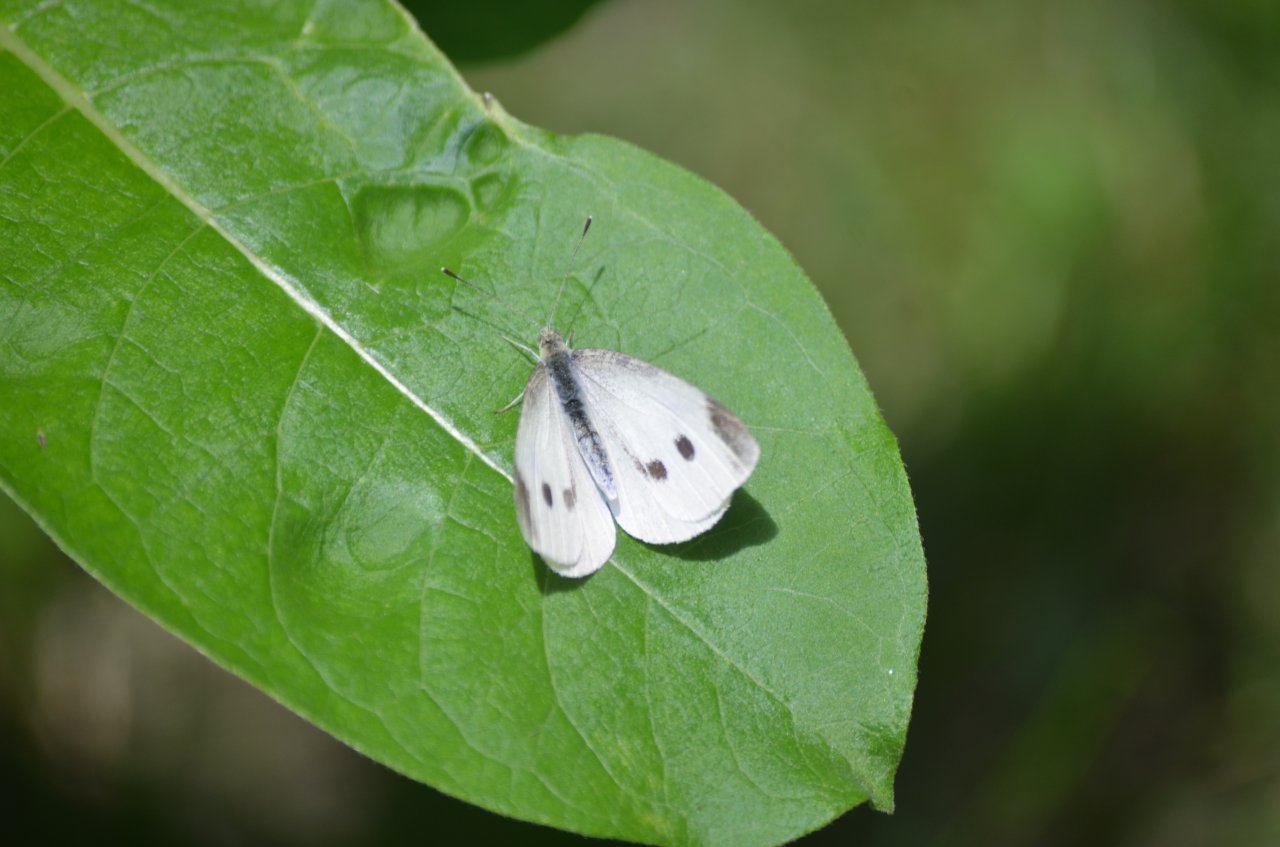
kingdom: Animalia
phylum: Arthropoda
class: Insecta
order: Lepidoptera
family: Pieridae
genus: Pieris
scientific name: Pieris rapae
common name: Cabbage White
